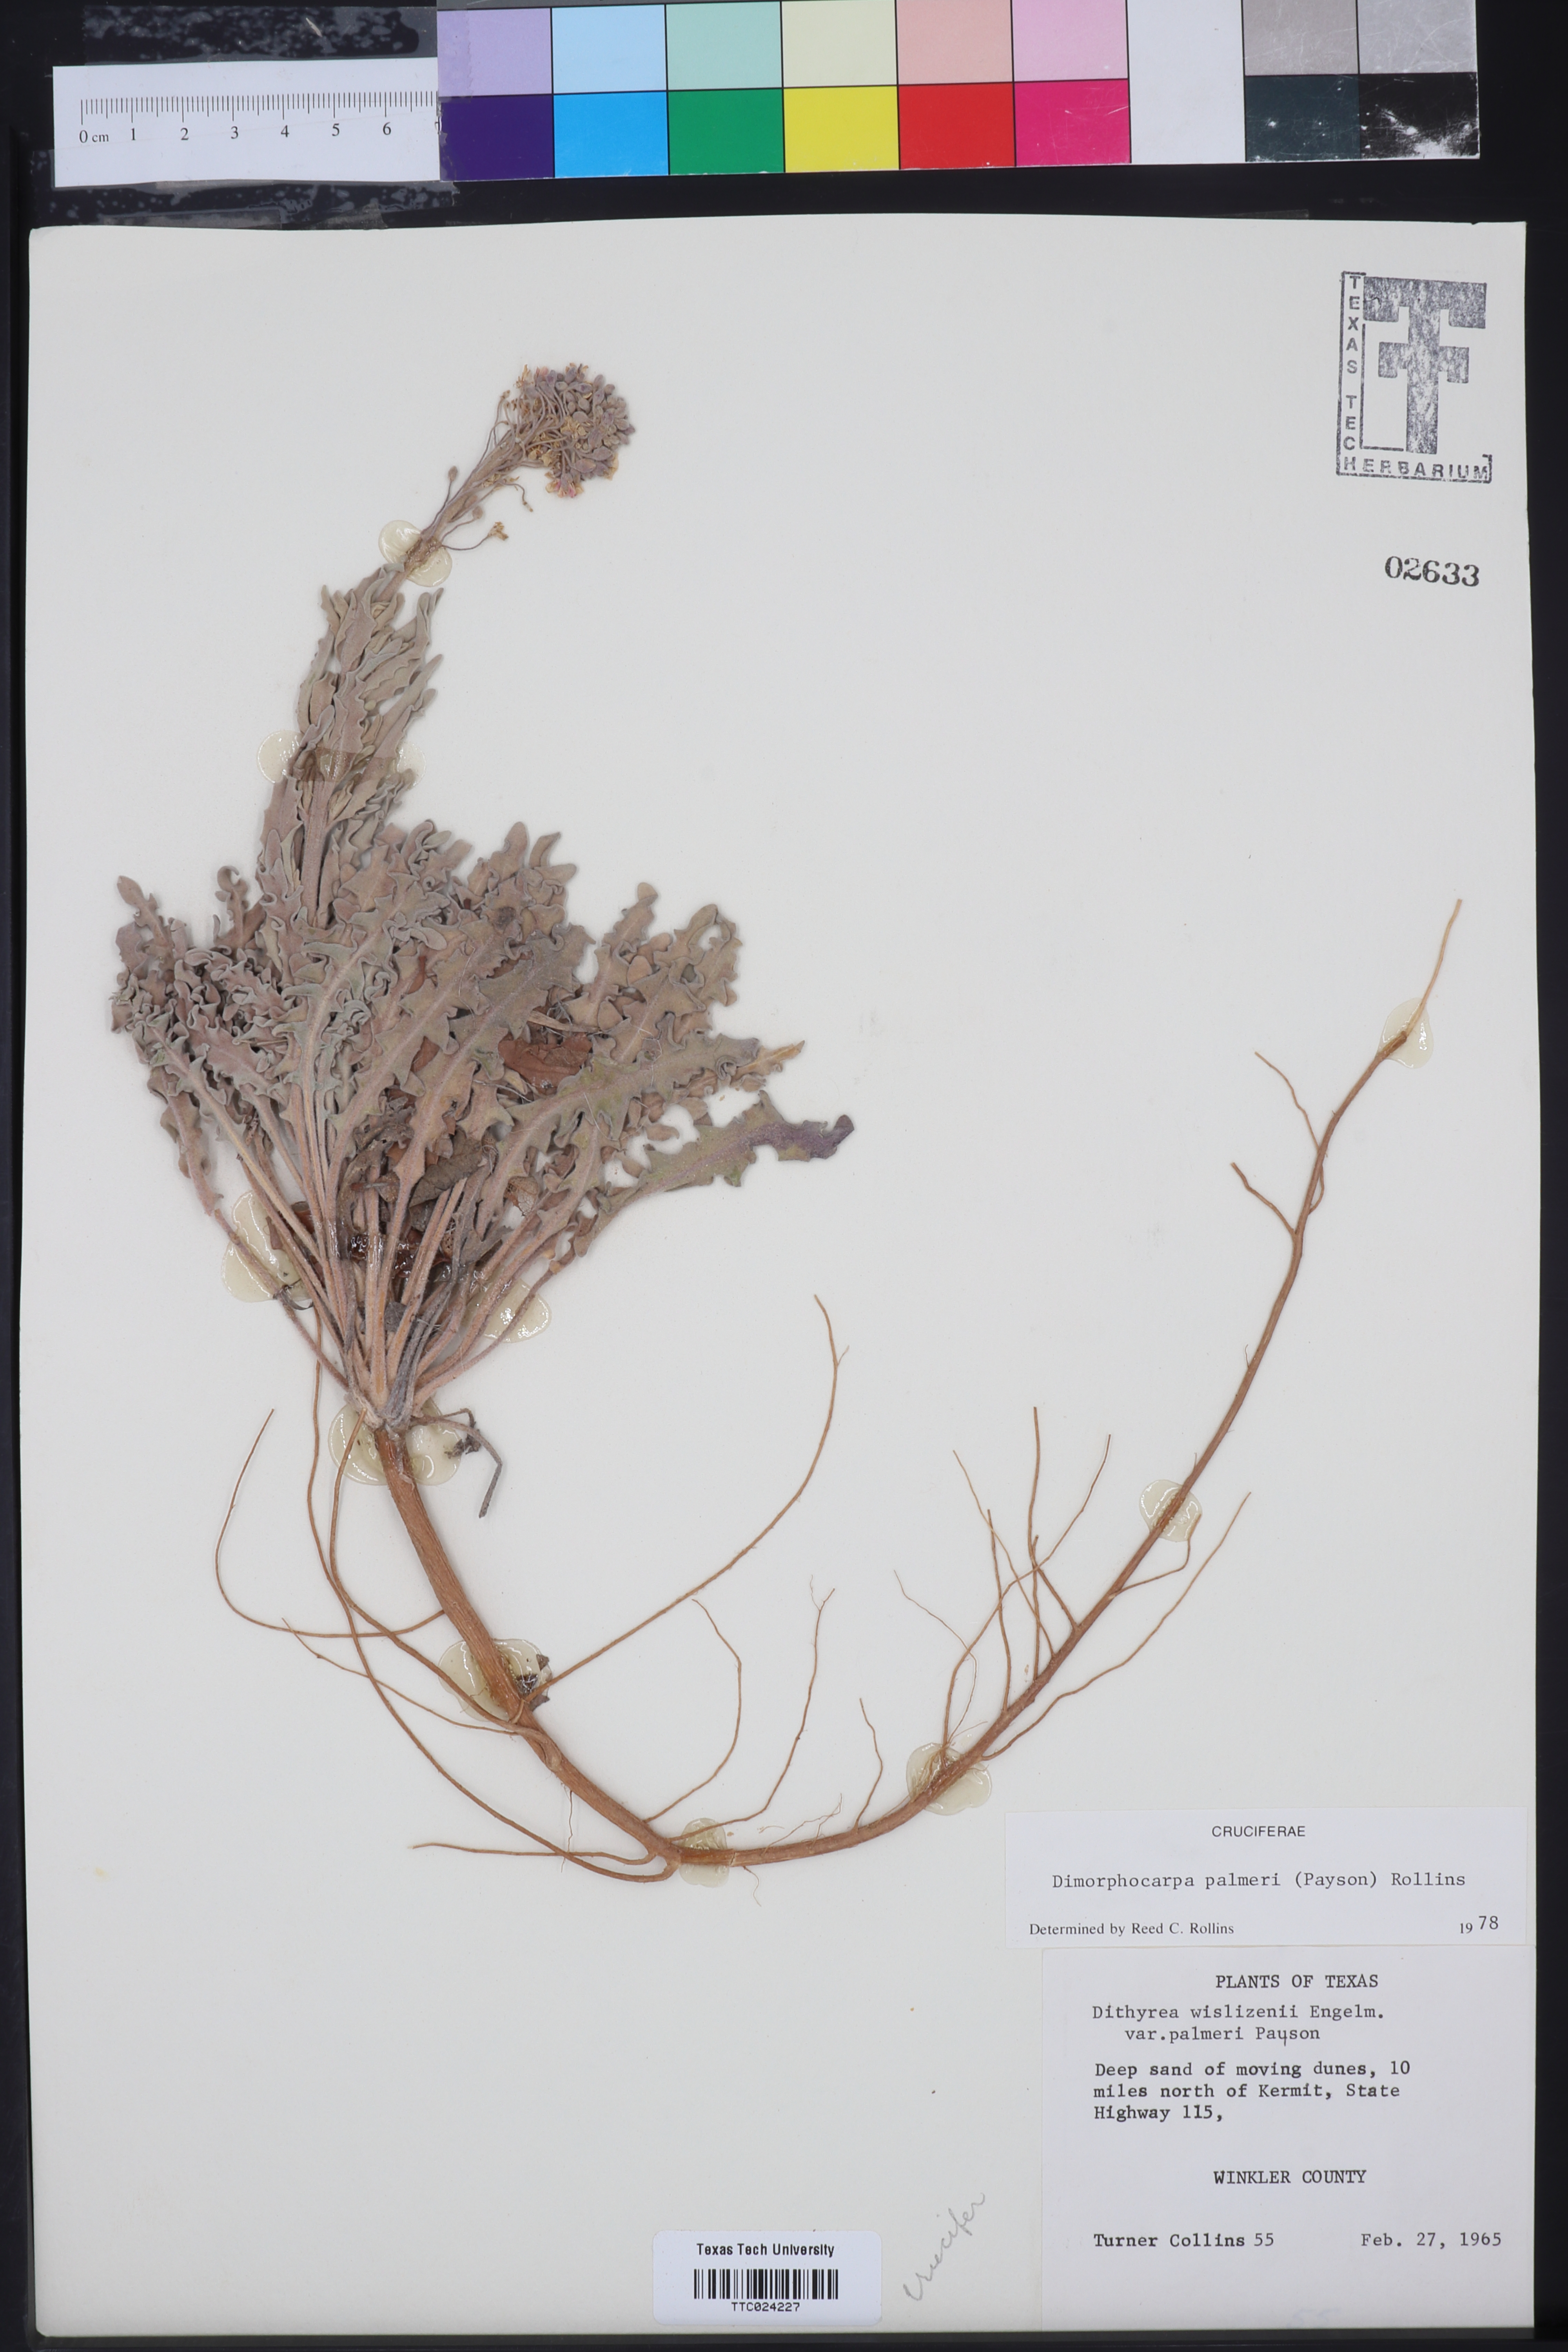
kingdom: Plantae
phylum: Tracheophyta
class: Magnoliopsida
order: Brassicales
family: Brassicaceae
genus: Dimorphocarpa
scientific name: Dimorphocarpa candicans
